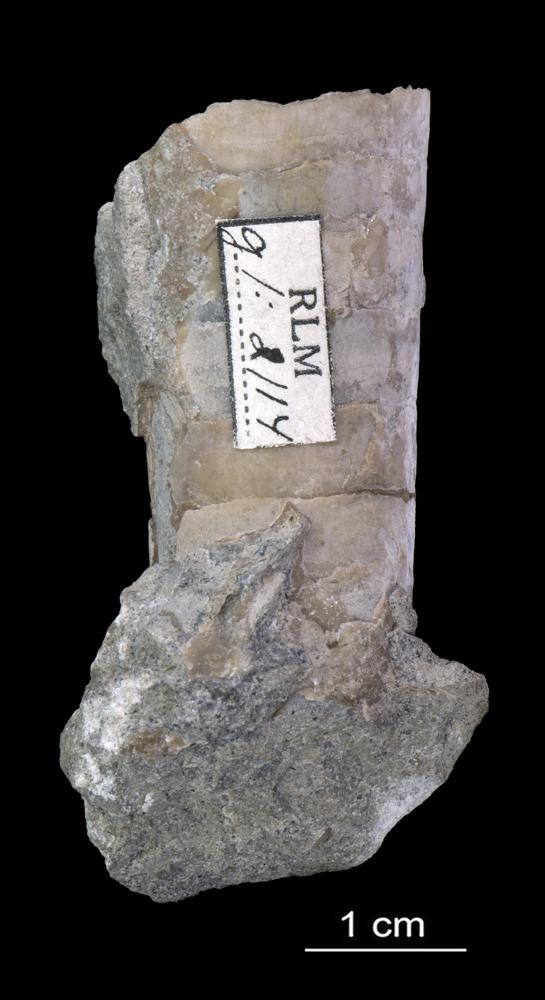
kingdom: Animalia
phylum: Mollusca
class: Cephalopoda
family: Endoceratidae
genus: Cyclendoceras
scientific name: Cyclendoceras
